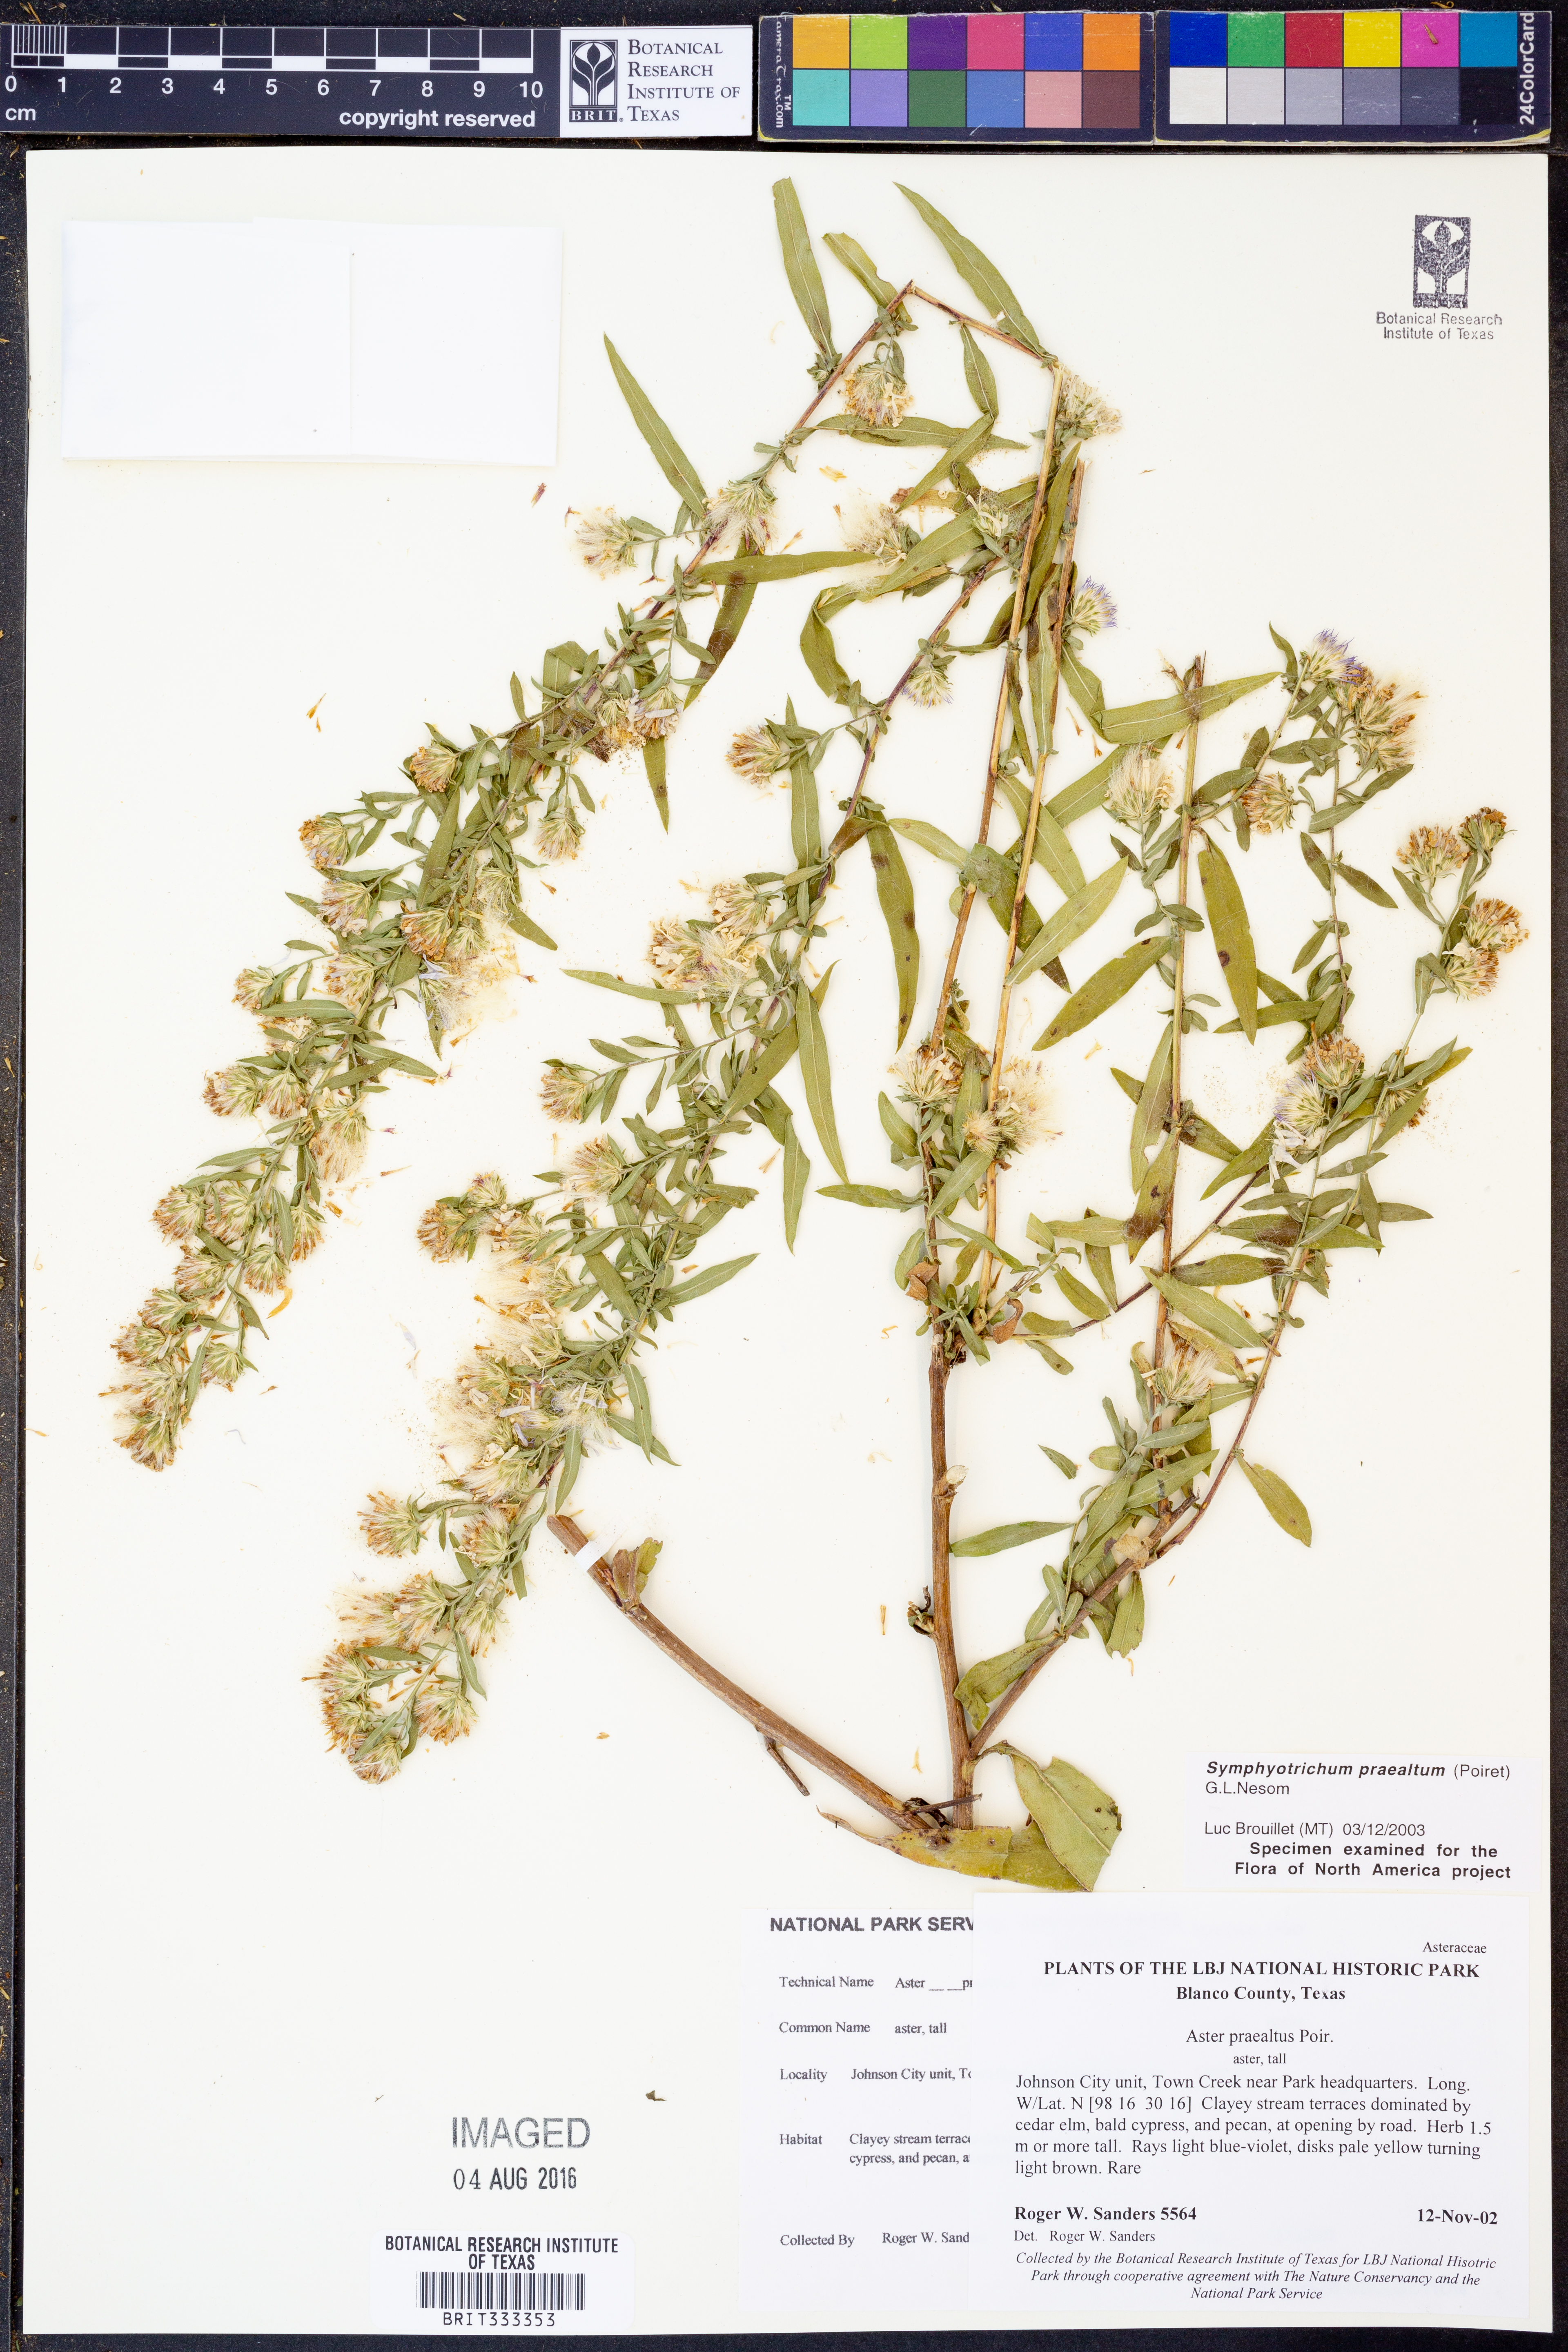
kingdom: Plantae
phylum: Tracheophyta
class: Magnoliopsida
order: Asterales
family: Asteraceae
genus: Symphyotrichum
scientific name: Symphyotrichum praealtum
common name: Willow aster
